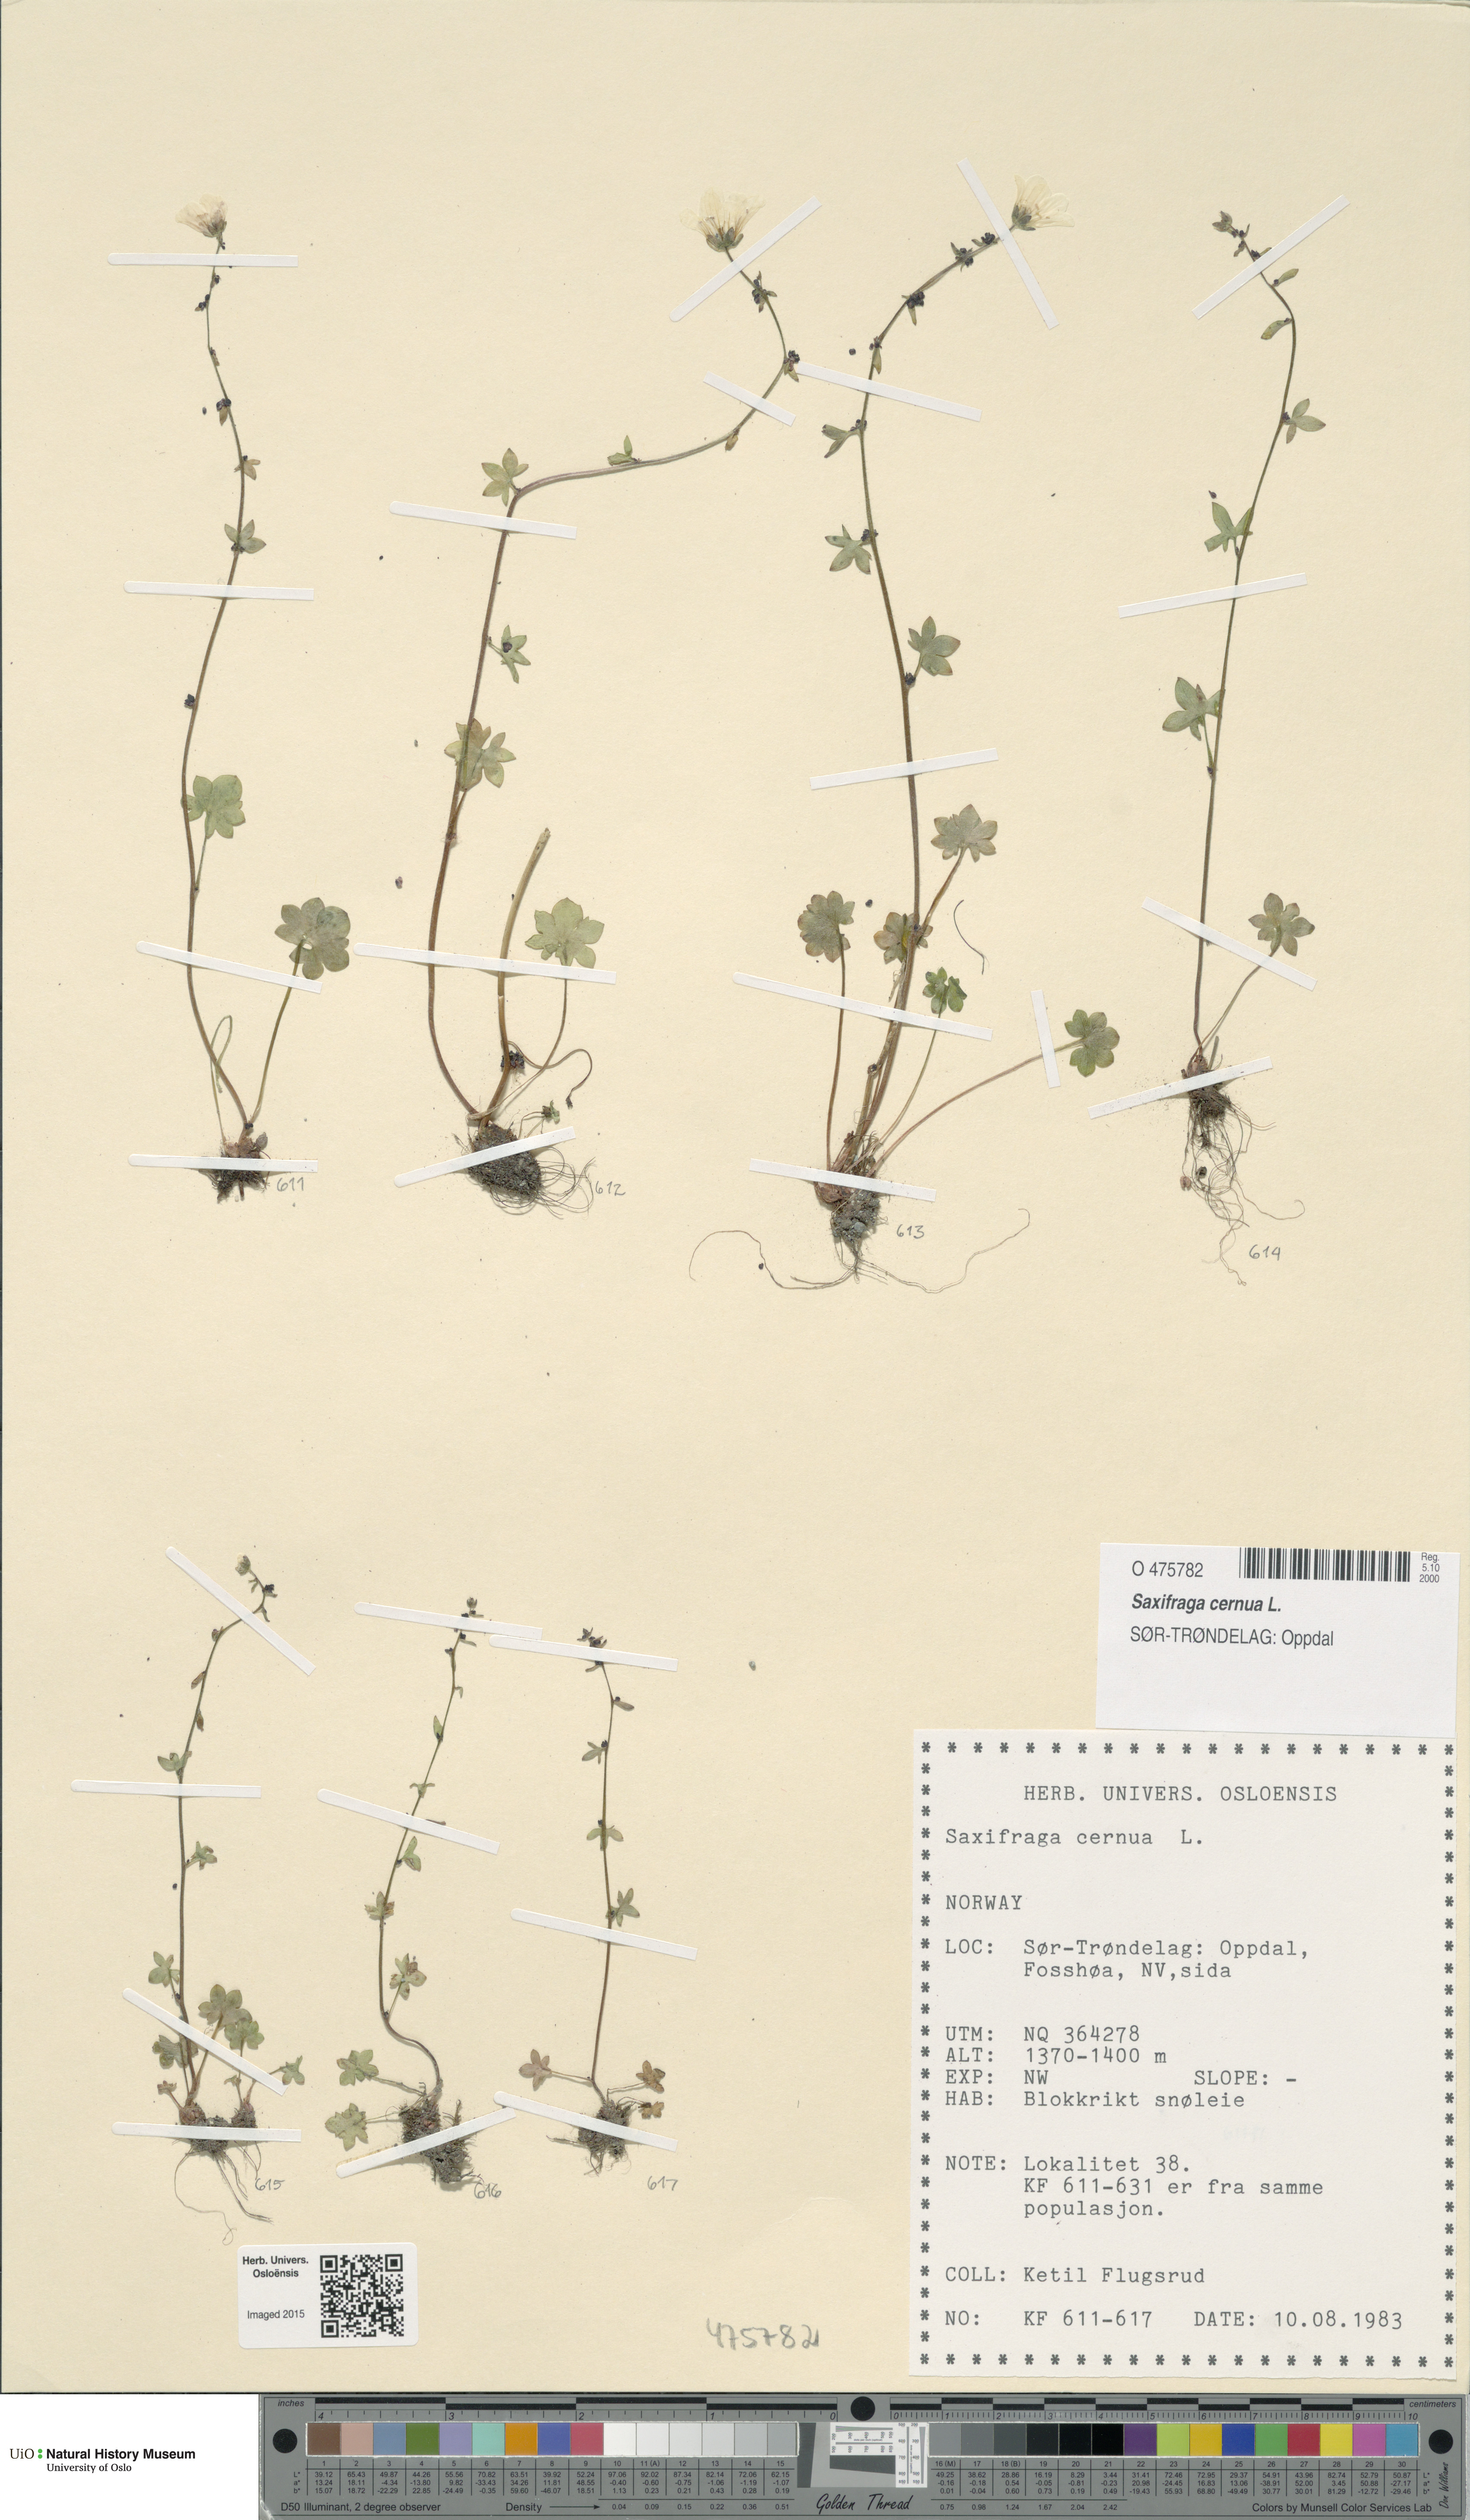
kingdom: Plantae
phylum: Tracheophyta
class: Magnoliopsida
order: Saxifragales
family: Saxifragaceae
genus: Saxifraga
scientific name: Saxifraga cernua
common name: Drooping saxifrage
